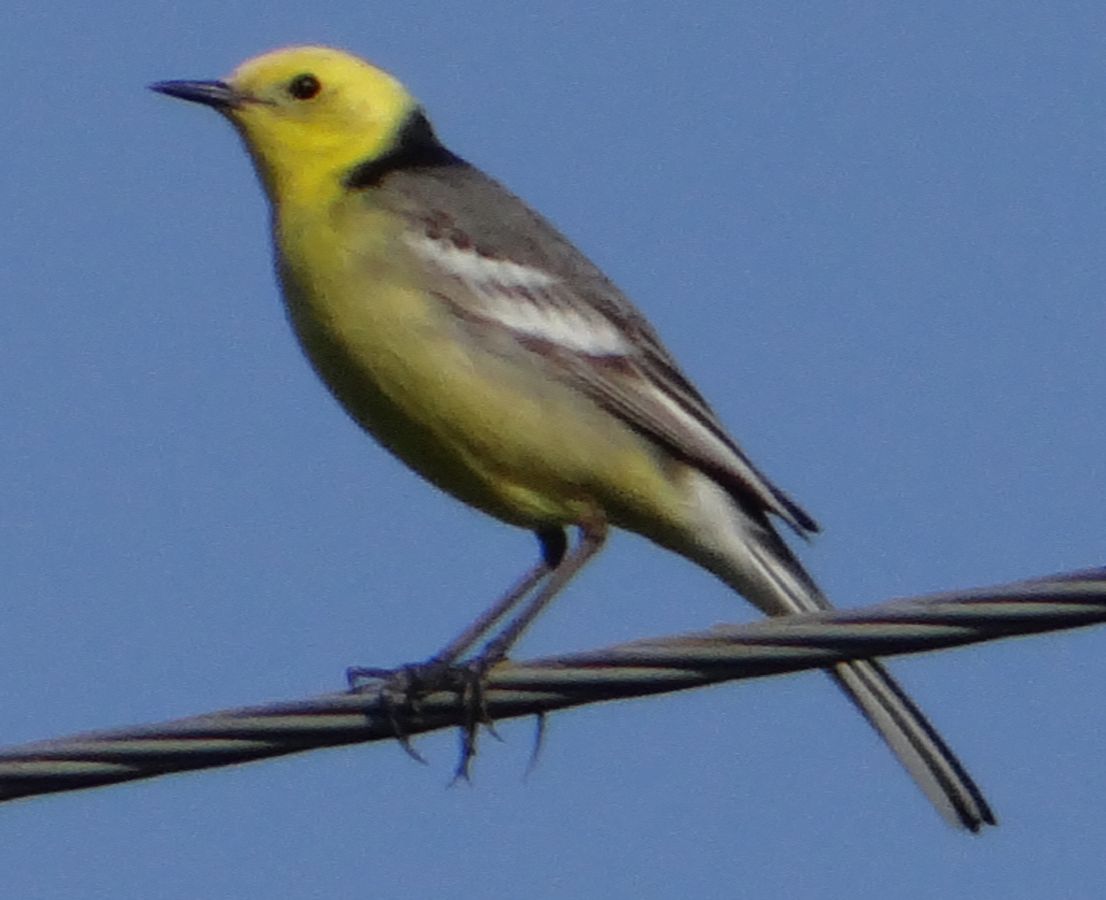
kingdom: Animalia
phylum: Chordata
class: Aves
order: Passeriformes
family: Motacillidae
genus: Motacilla
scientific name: Motacilla citreola
